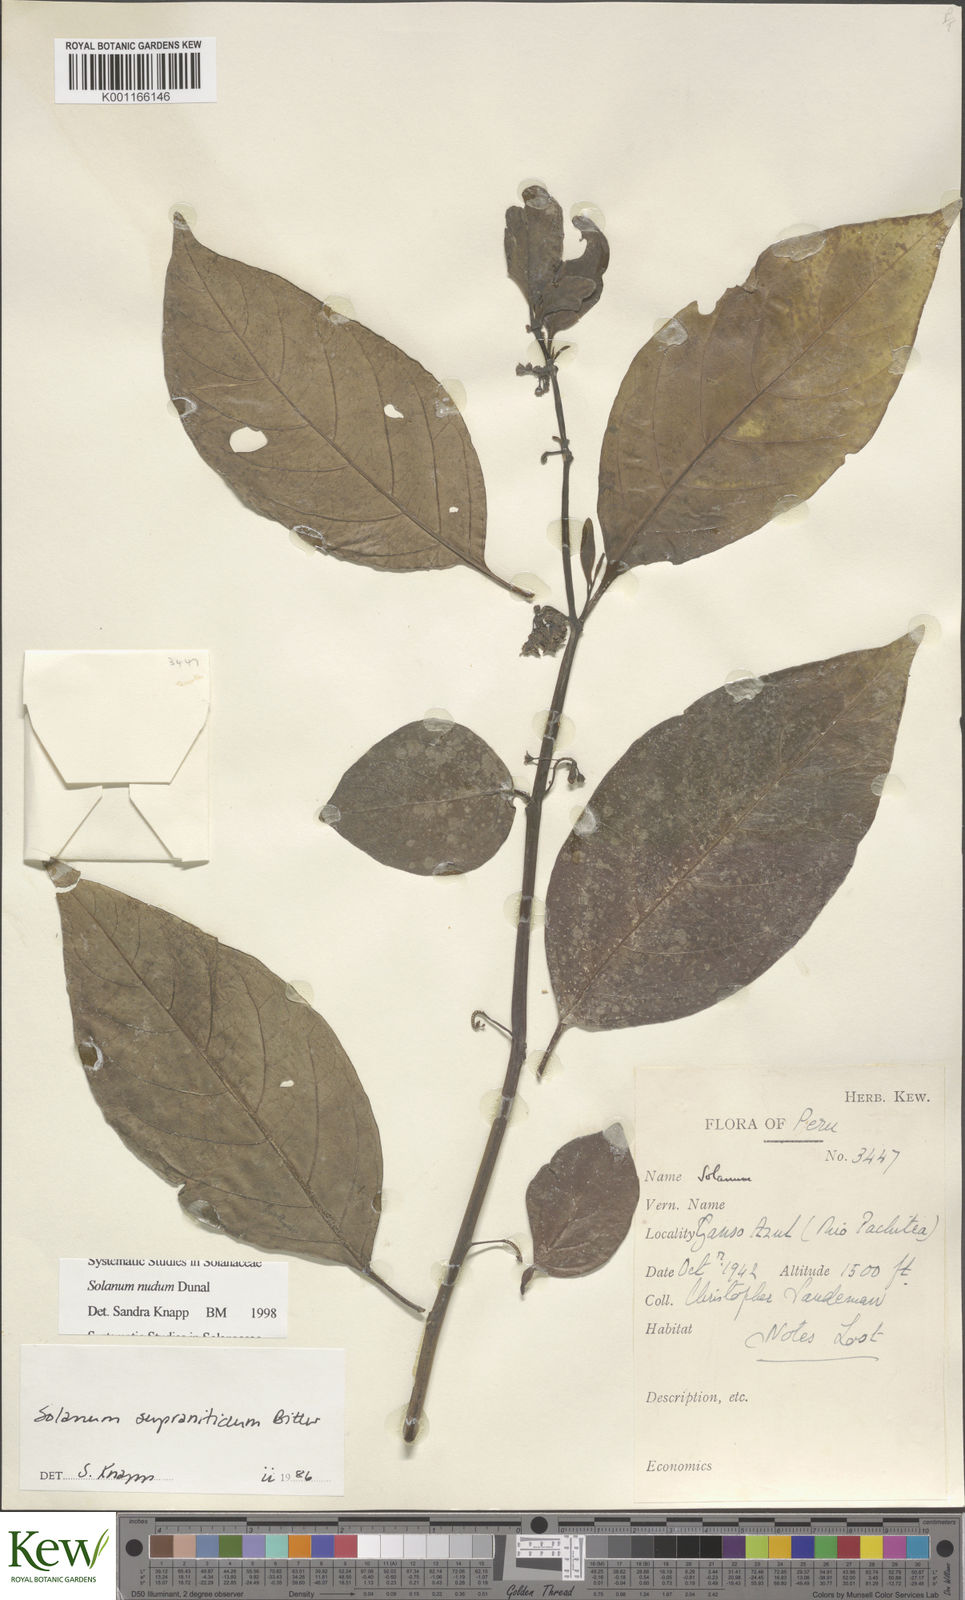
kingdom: Plantae
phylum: Tracheophyta
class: Magnoliopsida
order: Solanales
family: Solanaceae
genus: Solanum
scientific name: Solanum nudum
